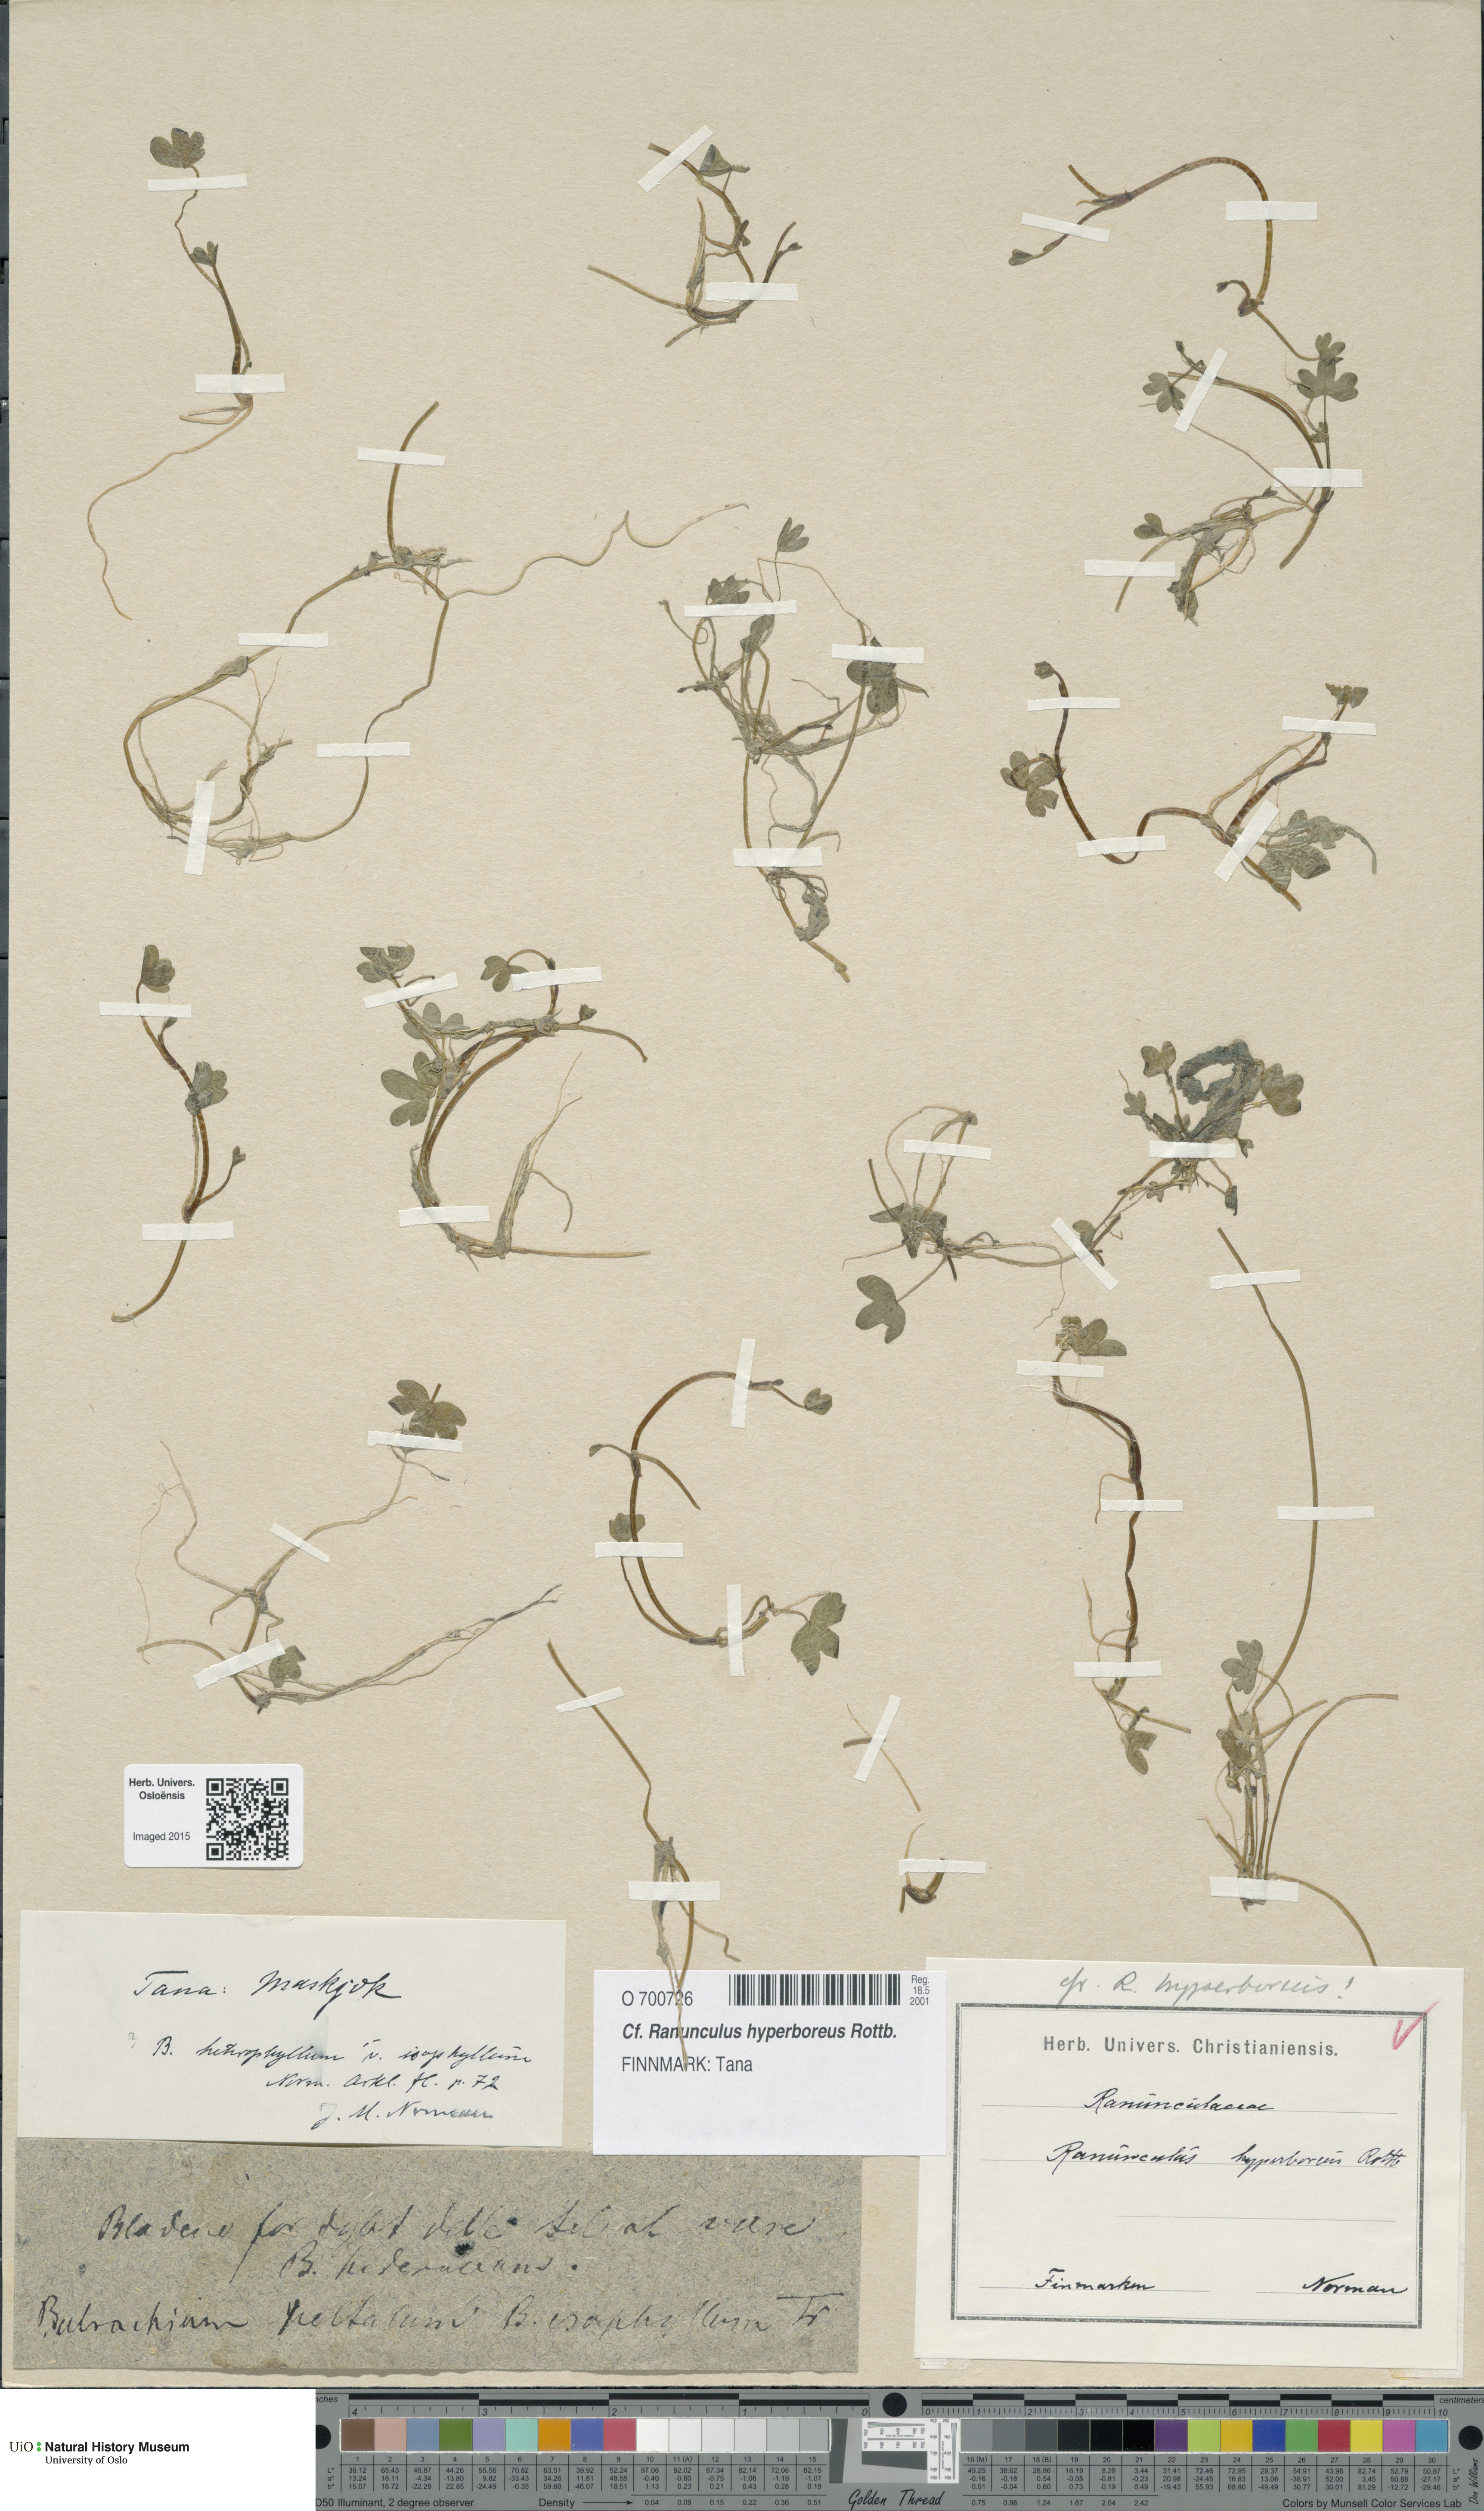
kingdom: Plantae
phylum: Tracheophyta
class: Magnoliopsida
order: Ranunculales
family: Ranunculaceae
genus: Ranunculus
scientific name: Ranunculus hyperboreus
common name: Arctic buttercup
